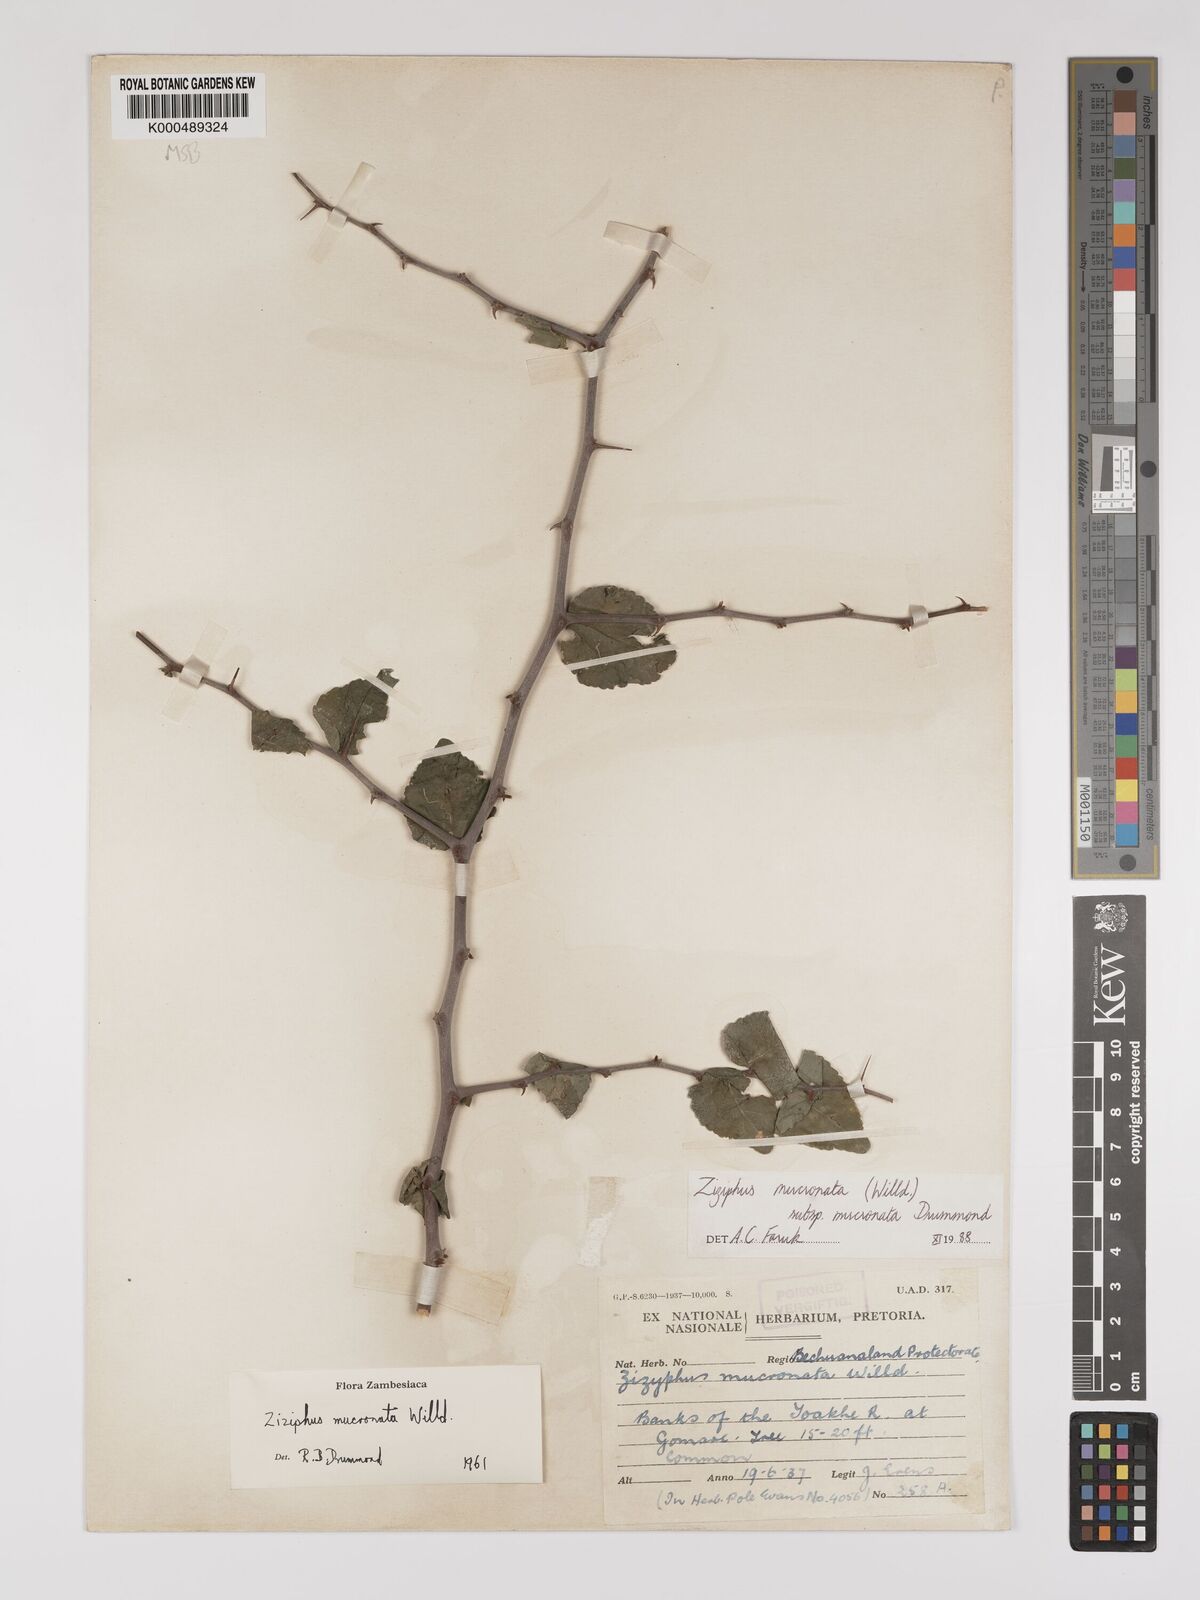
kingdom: Plantae
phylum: Tracheophyta
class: Magnoliopsida
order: Rosales
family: Rhamnaceae
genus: Ziziphus
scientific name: Ziziphus mucronata
